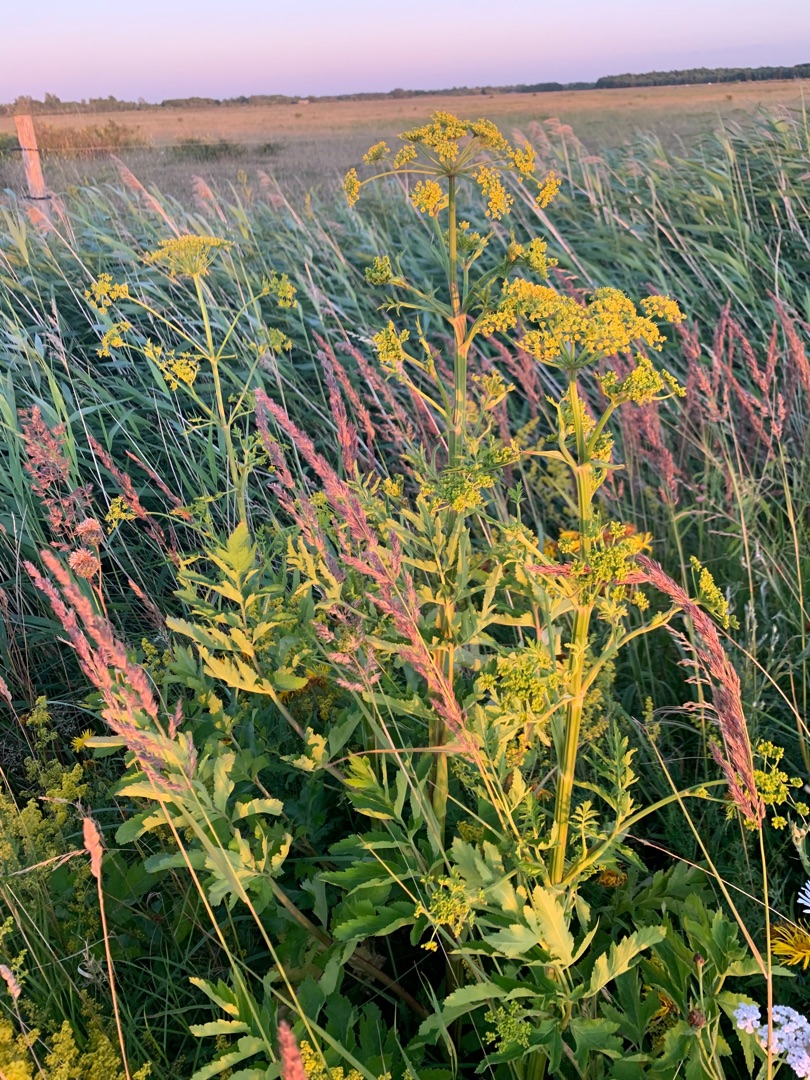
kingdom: Plantae
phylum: Tracheophyta
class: Magnoliopsida
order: Apiales
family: Apiaceae
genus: Pastinaca
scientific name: Pastinaca sativa
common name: Pastinak
